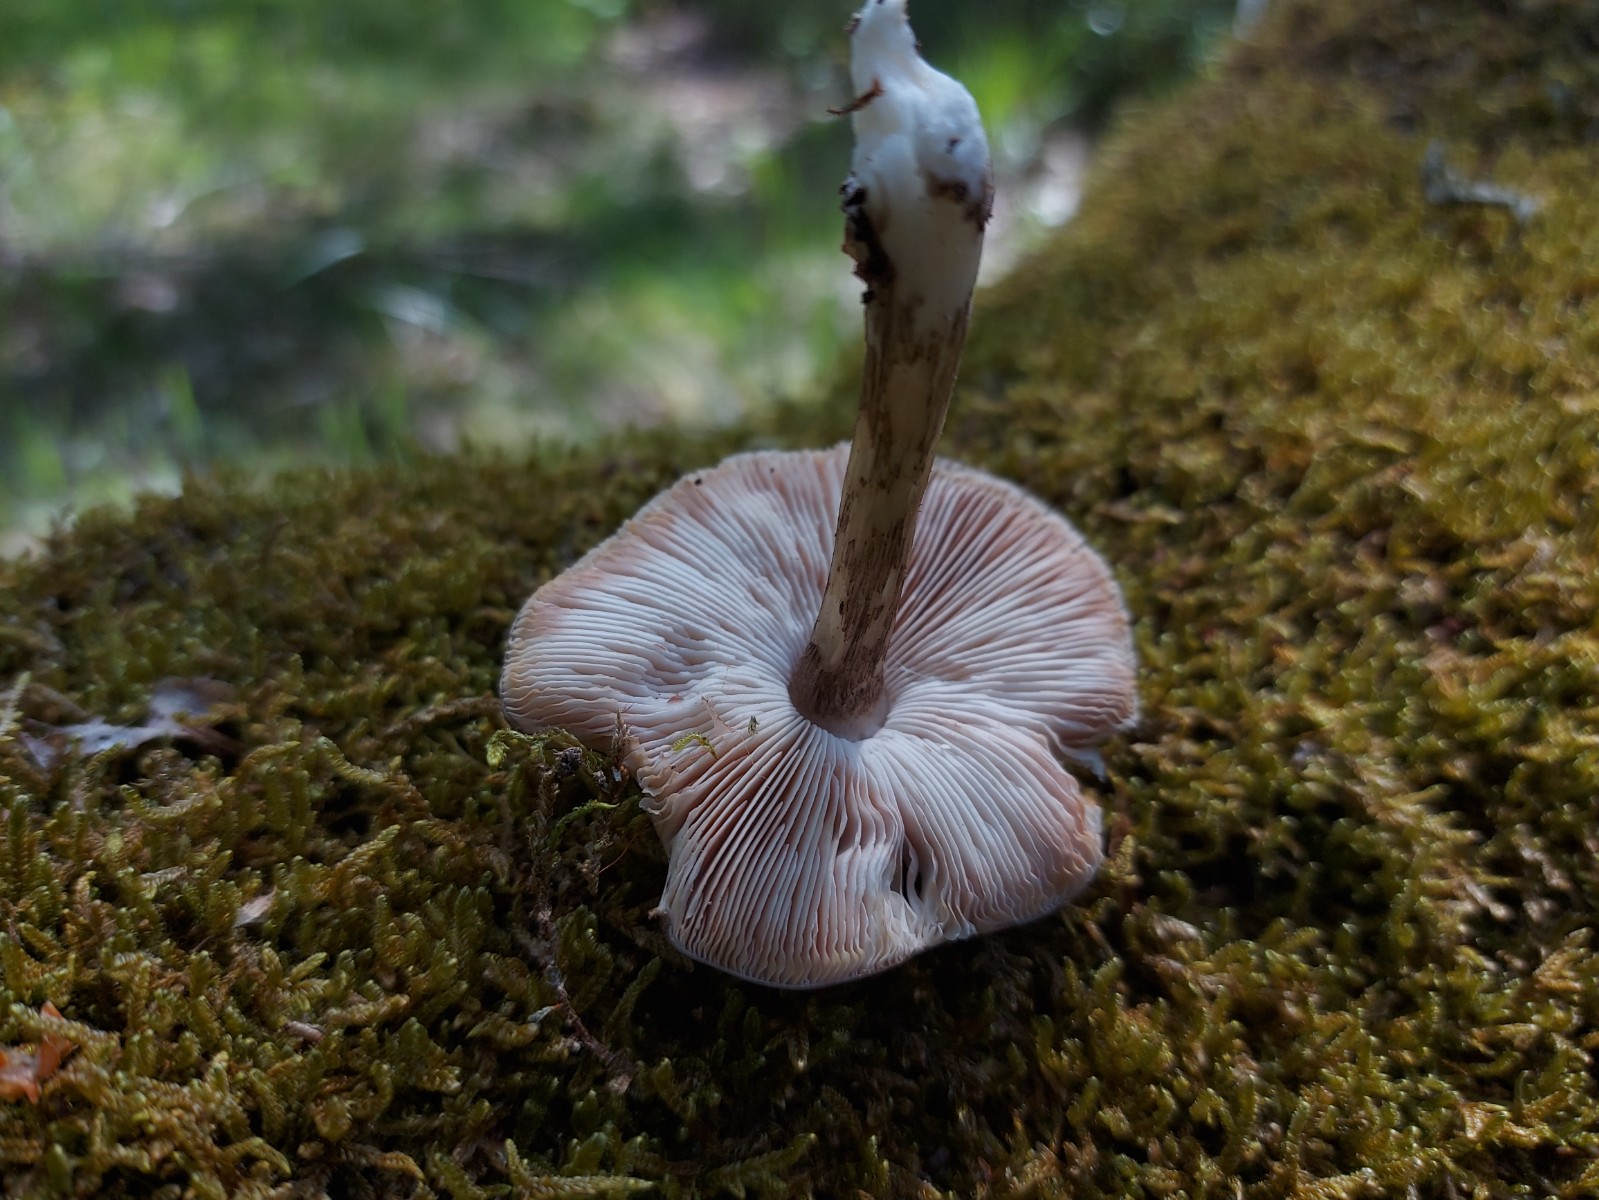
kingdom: Fungi
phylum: Basidiomycota
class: Agaricomycetes
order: Agaricales
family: Pluteaceae
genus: Pluteus
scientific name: Pluteus cervinus
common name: sodfarvet skærmhat
